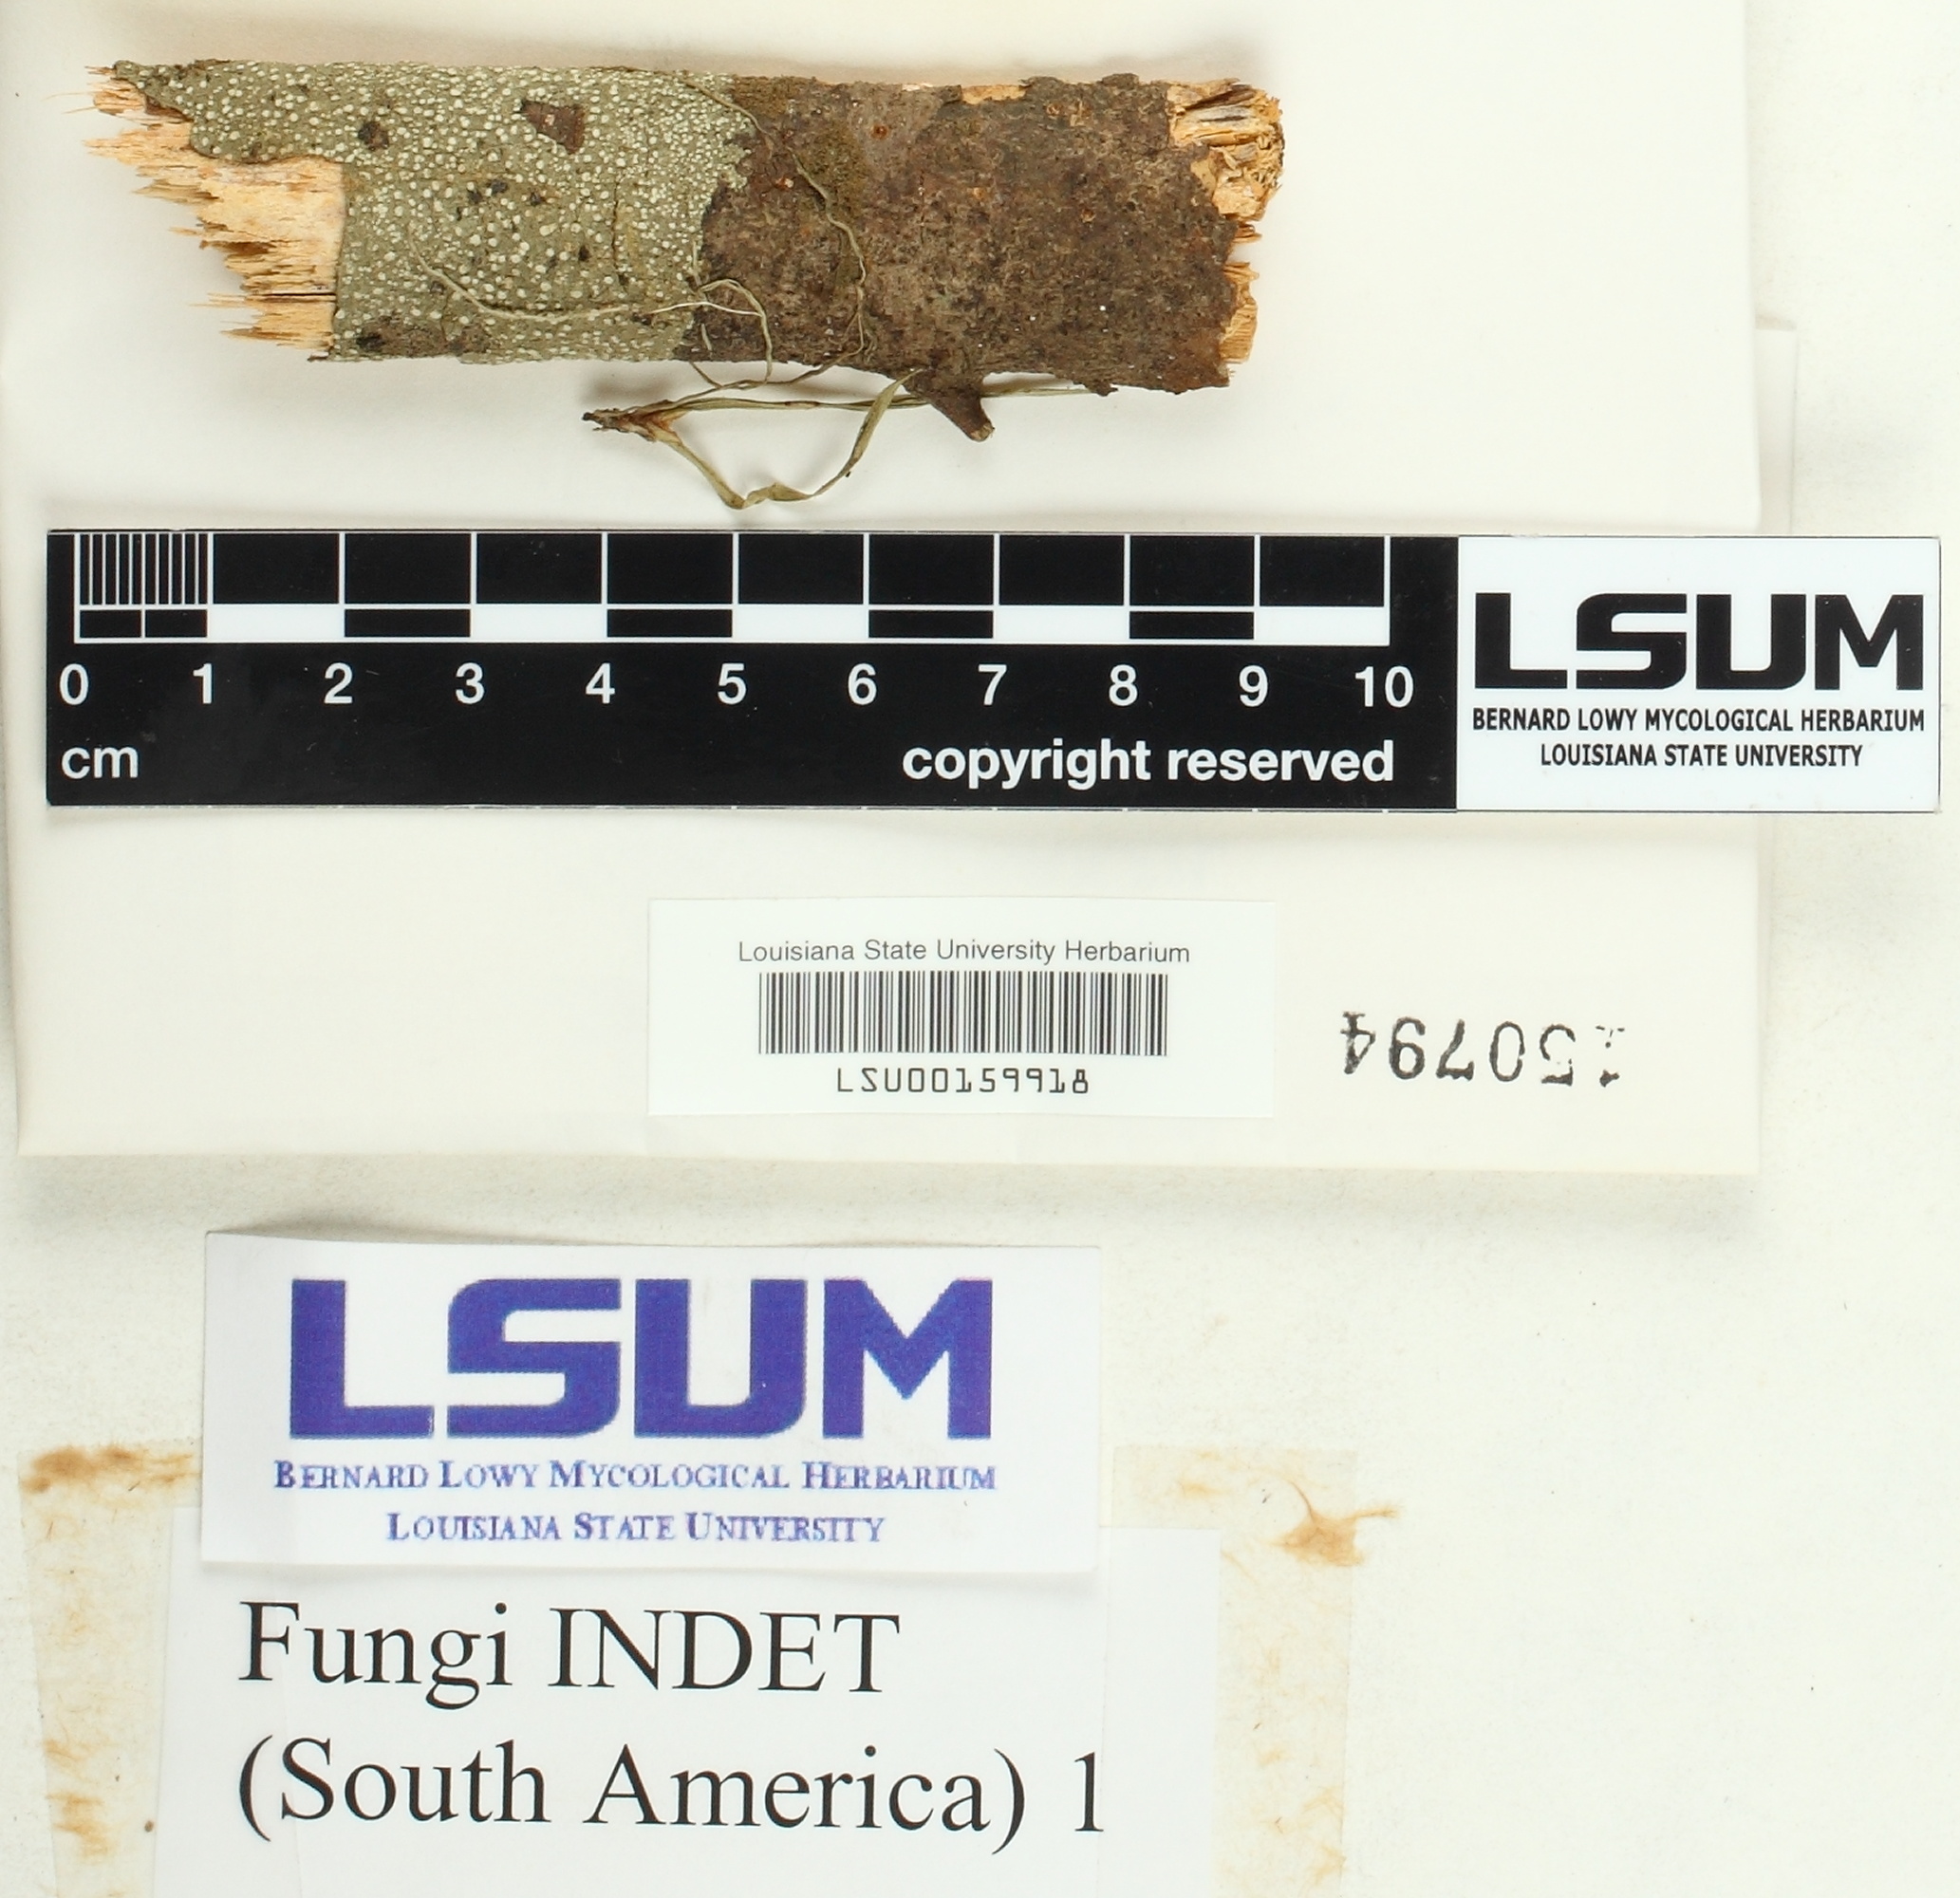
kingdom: Fungi
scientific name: Fungi
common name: Fungi
